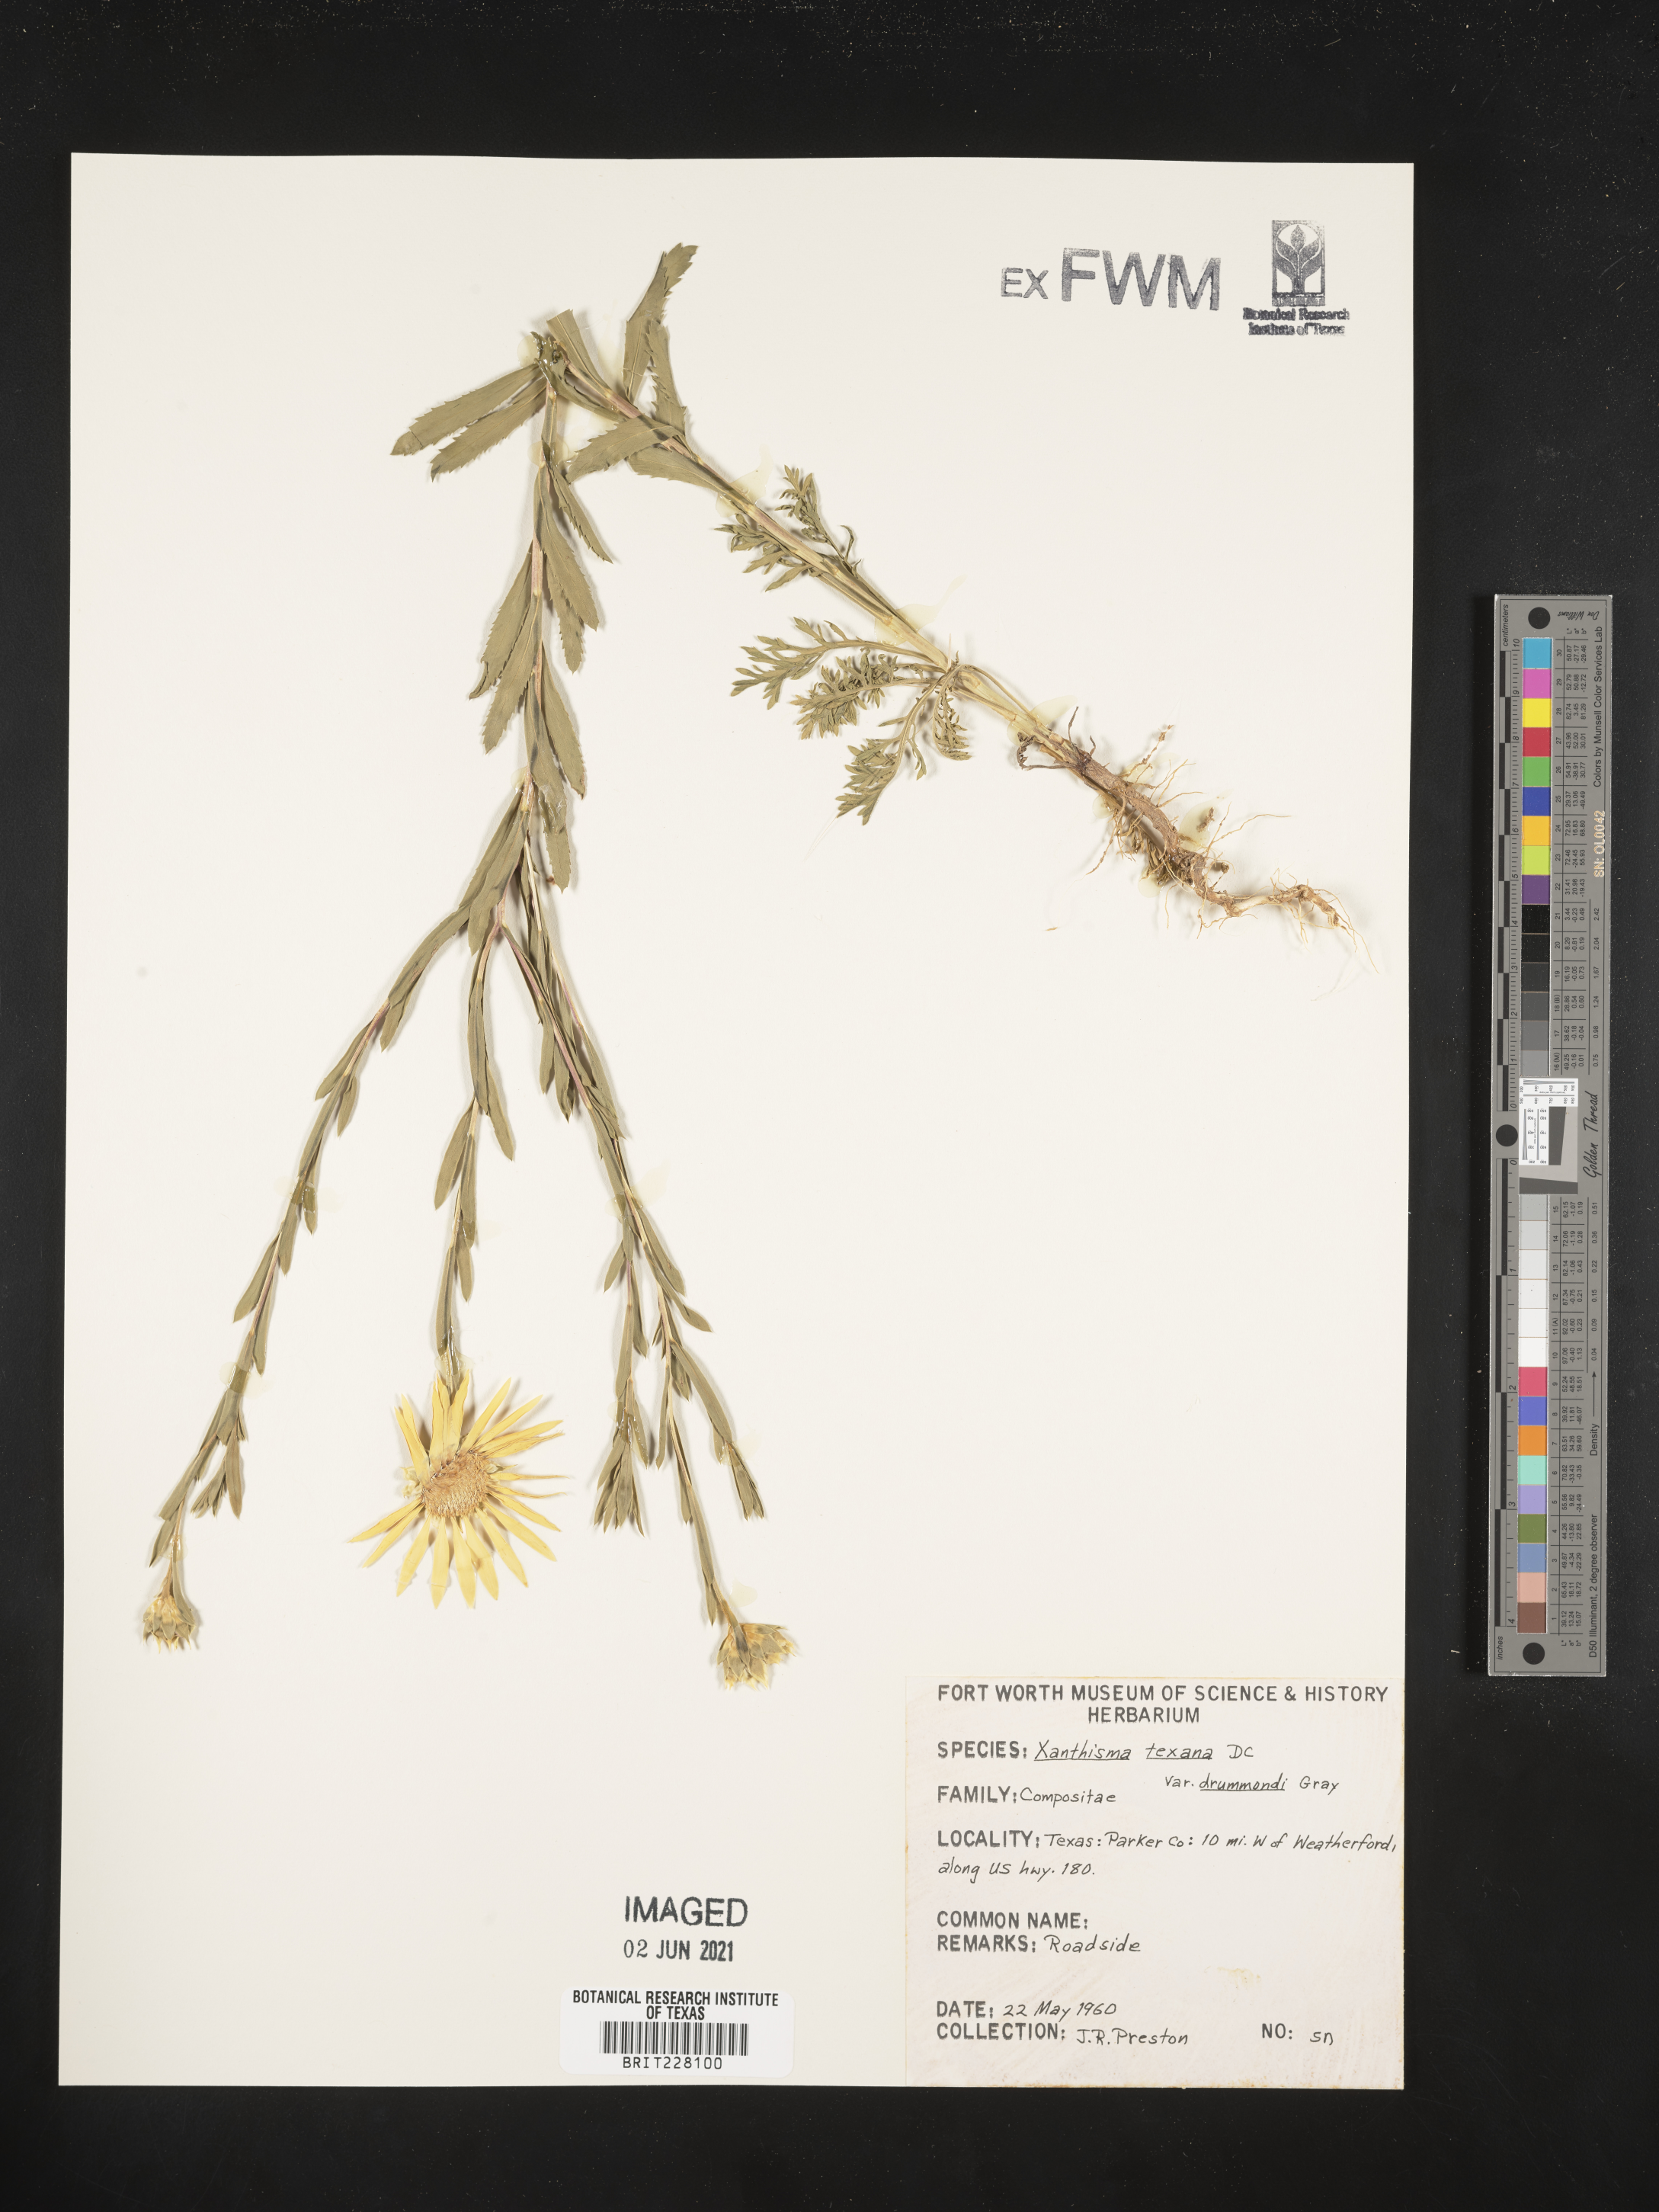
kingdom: Plantae
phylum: Tracheophyta
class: Magnoliopsida
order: Asterales
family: Asteraceae
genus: Xanthisma
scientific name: Xanthisma texanum
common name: Texas sleepy daisy
